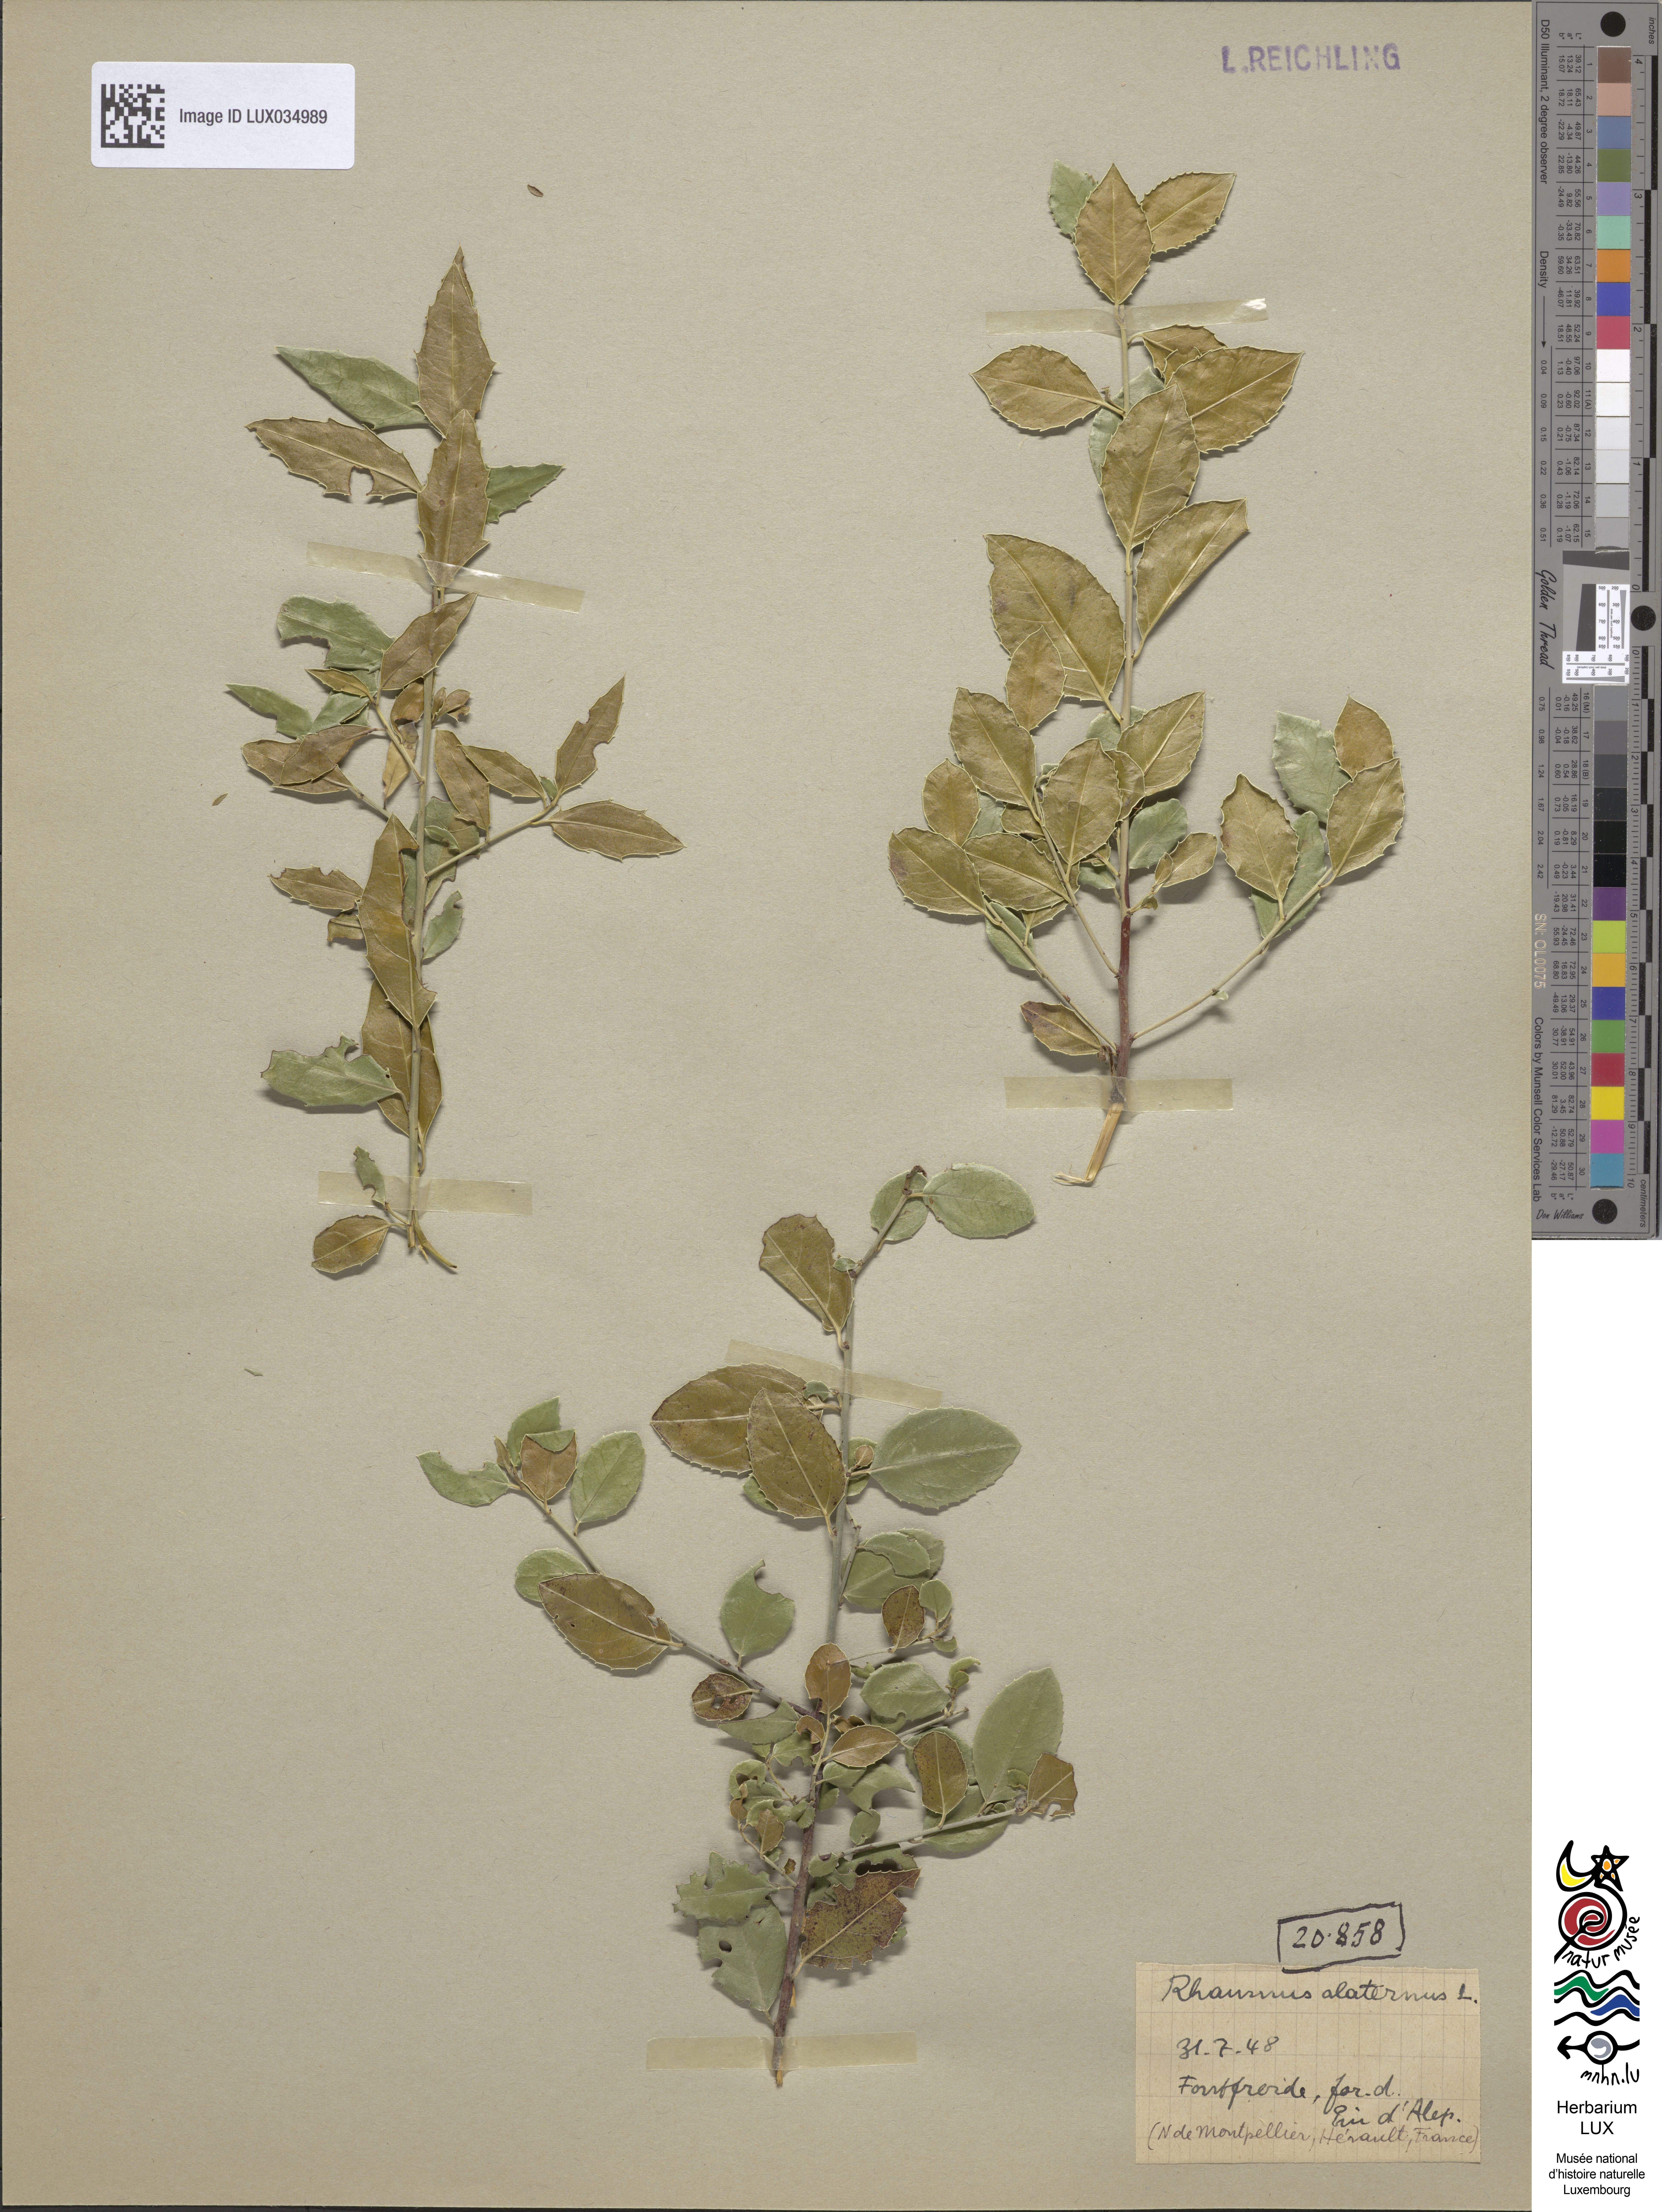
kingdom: Plantae
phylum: Tracheophyta
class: Magnoliopsida
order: Rosales
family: Rhamnaceae
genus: Rhamnus
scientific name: Rhamnus alaternus
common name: Mediterranean buckthorn
